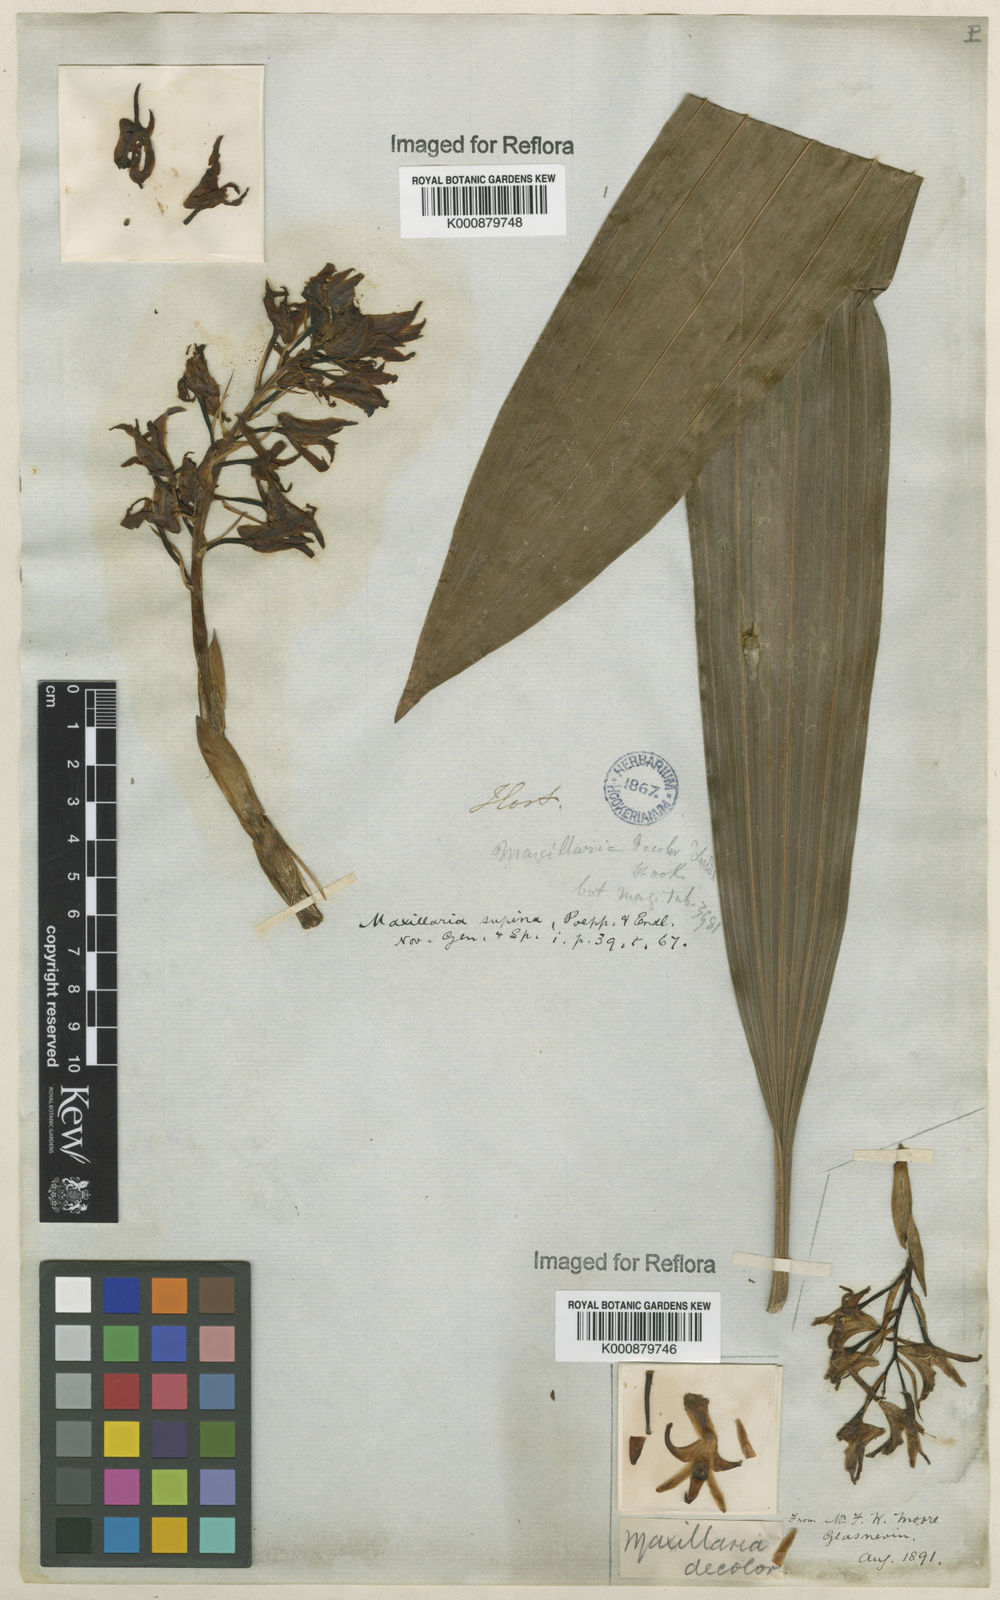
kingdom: Plantae
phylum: Tracheophyta
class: Liliopsida
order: Asparagales
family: Orchidaceae
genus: Xylobium
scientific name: Xylobium
